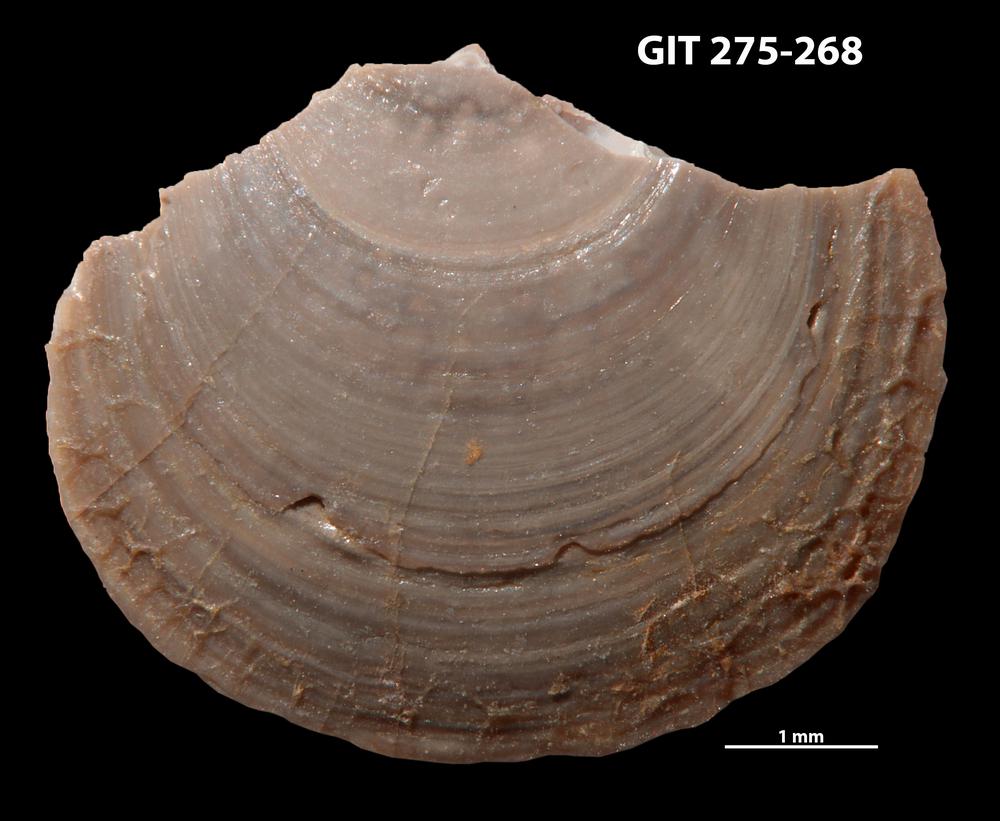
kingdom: Animalia
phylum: Brachiopoda
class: Lingulata
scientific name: Lingulata
